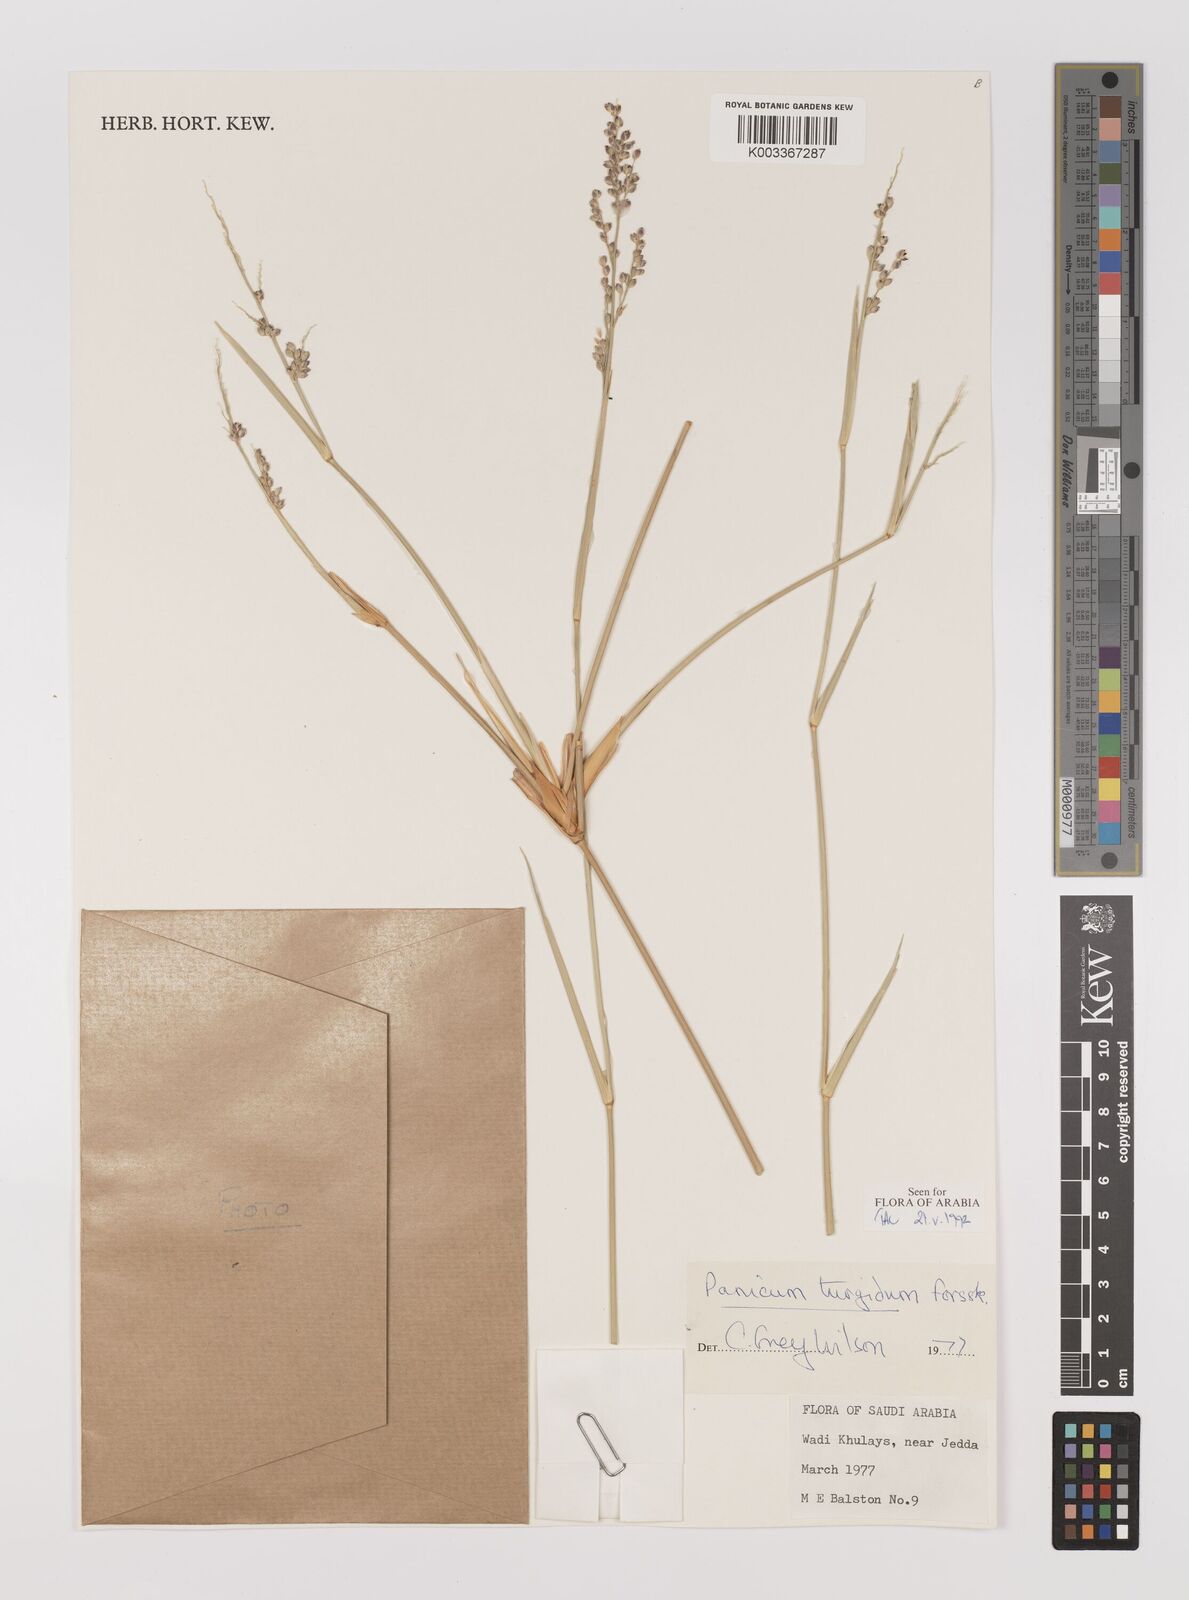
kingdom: Plantae
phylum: Tracheophyta
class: Liliopsida
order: Poales
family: Poaceae
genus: Panicum
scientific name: Panicum turgidum
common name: Desert grass
